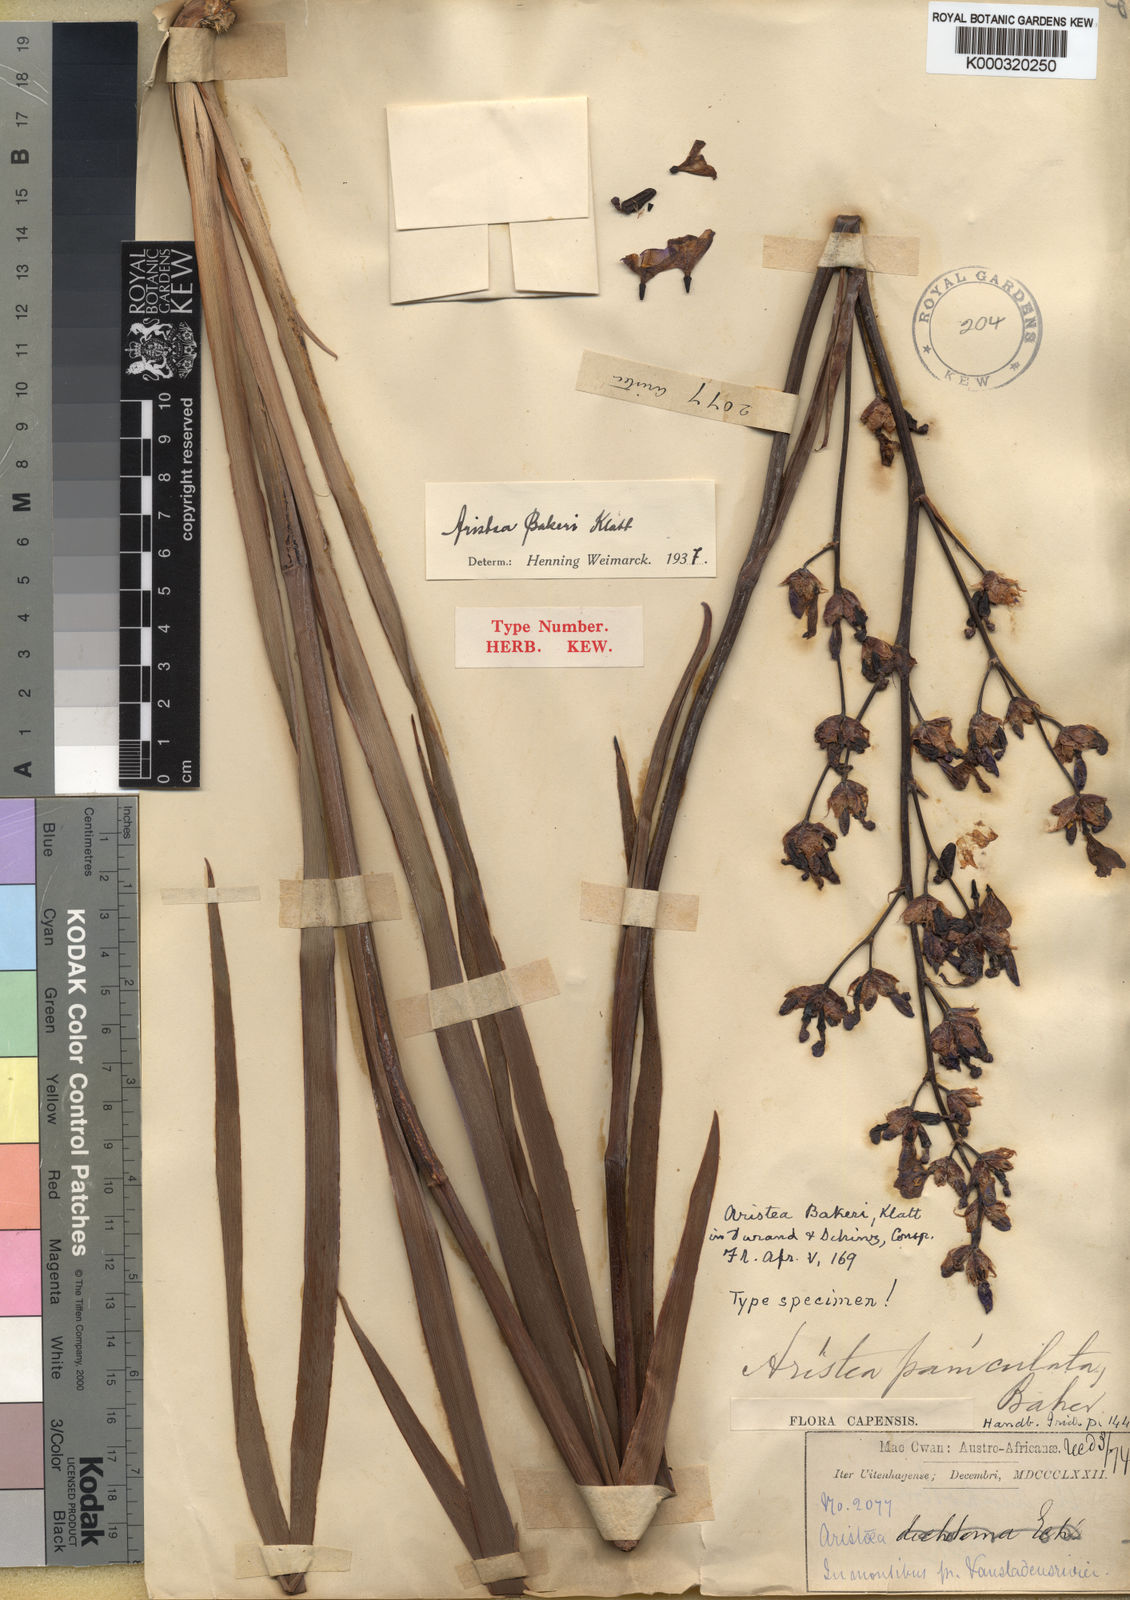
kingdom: Plantae
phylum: Tracheophyta
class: Liliopsida
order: Asparagales
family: Iridaceae
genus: Aristea
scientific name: Aristea bakeri
